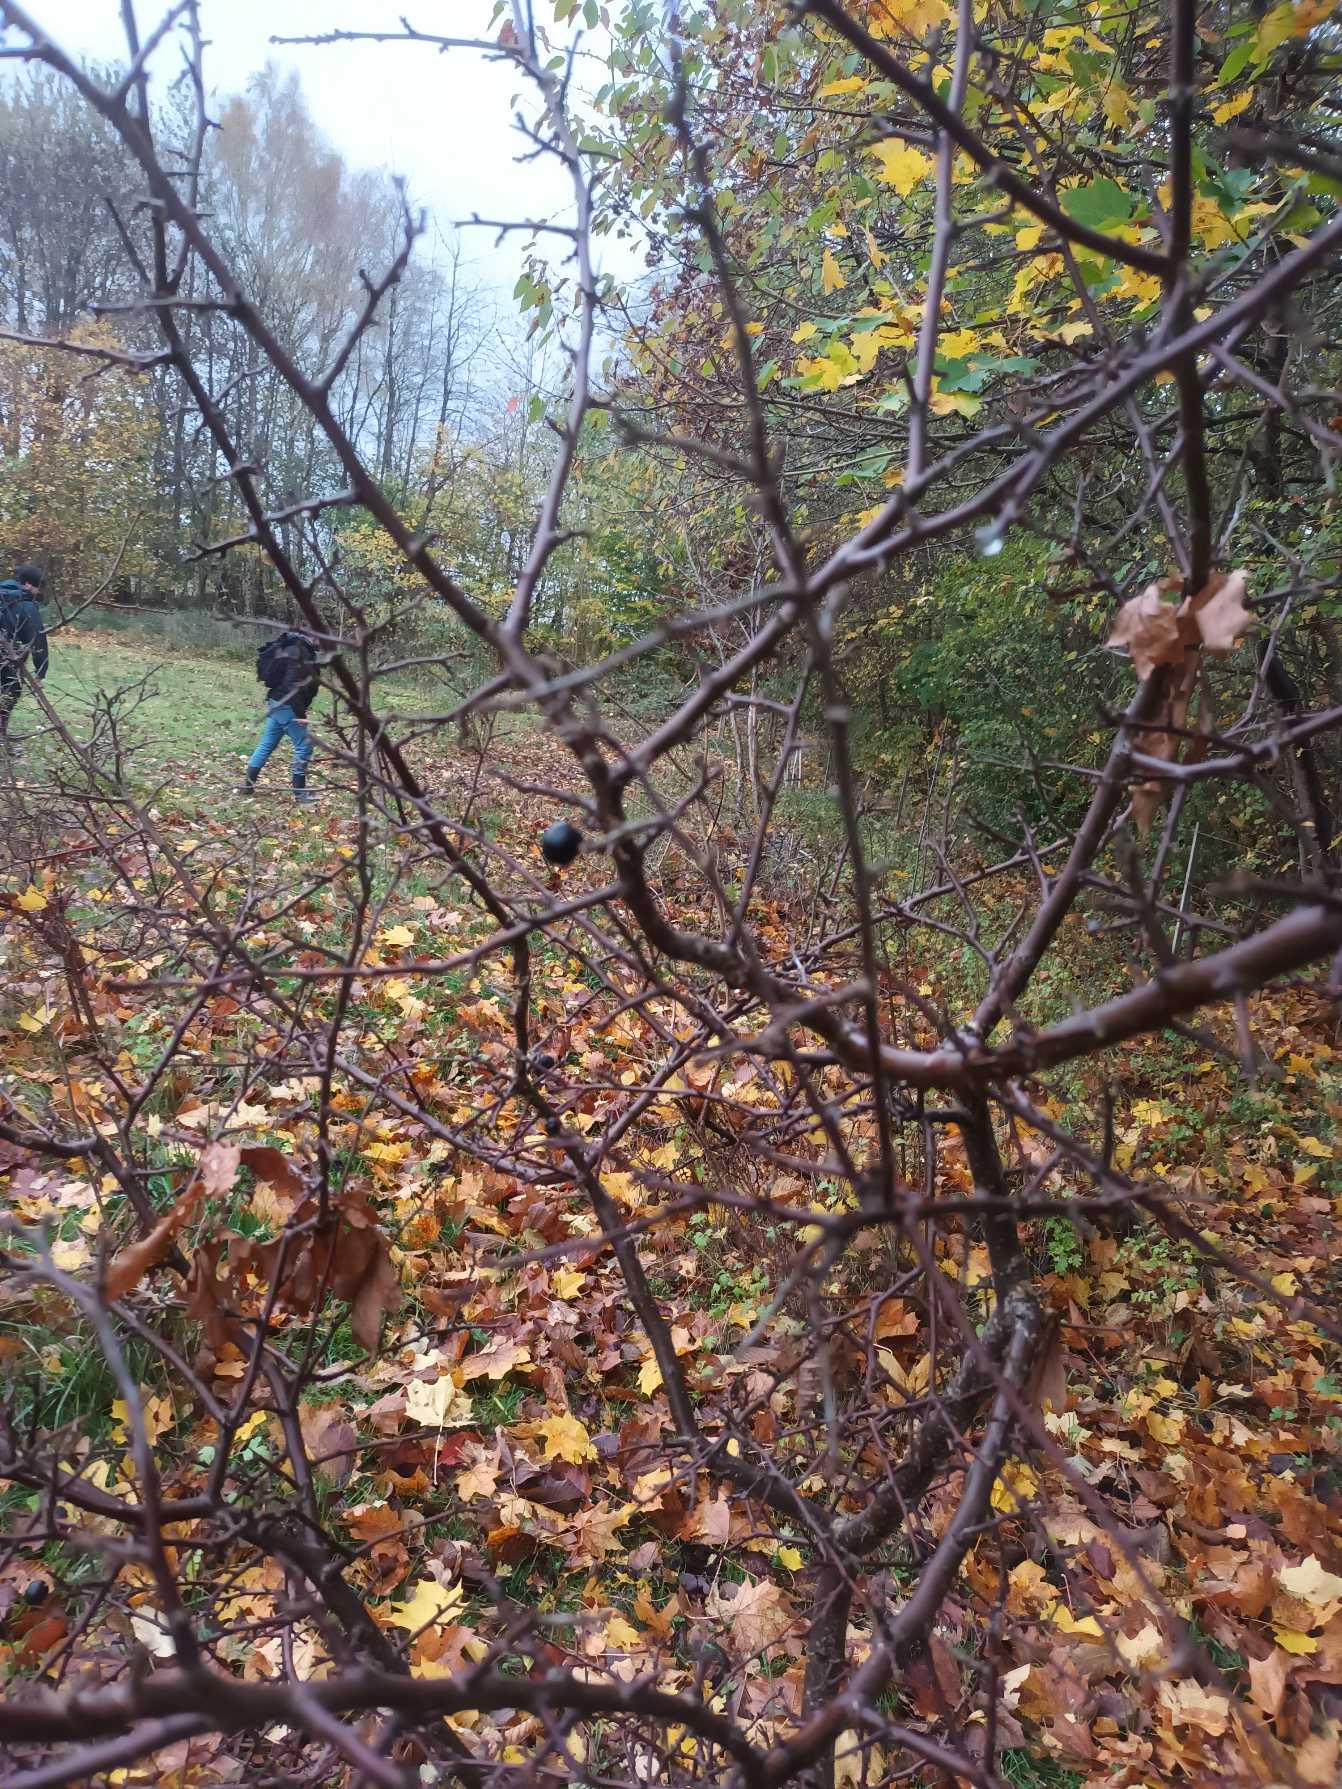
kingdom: Plantae
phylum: Tracheophyta
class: Magnoliopsida
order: Rosales
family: Rosaceae
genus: Prunus
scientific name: Prunus spinosa
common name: Slåen
